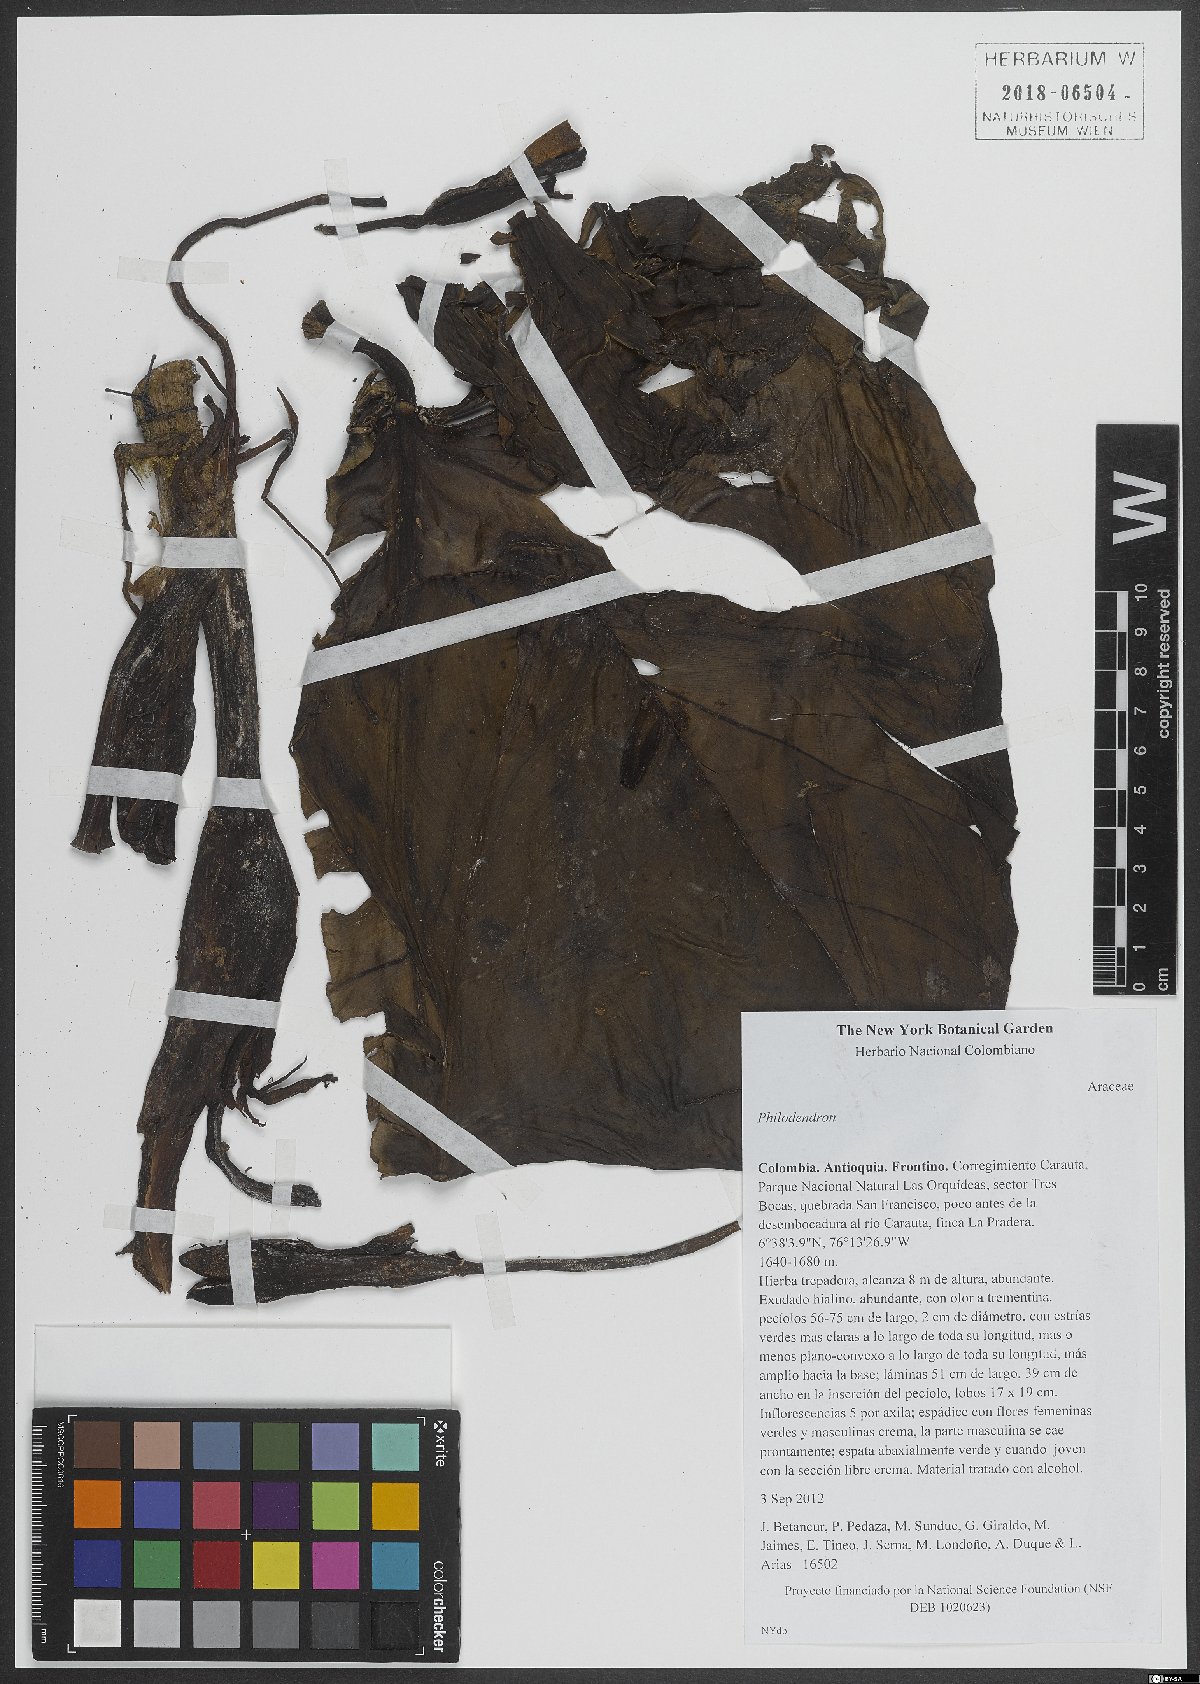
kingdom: Plantae
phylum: Tracheophyta
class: Liliopsida
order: Alismatales
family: Araceae
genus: Philodendron
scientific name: Philodendron
